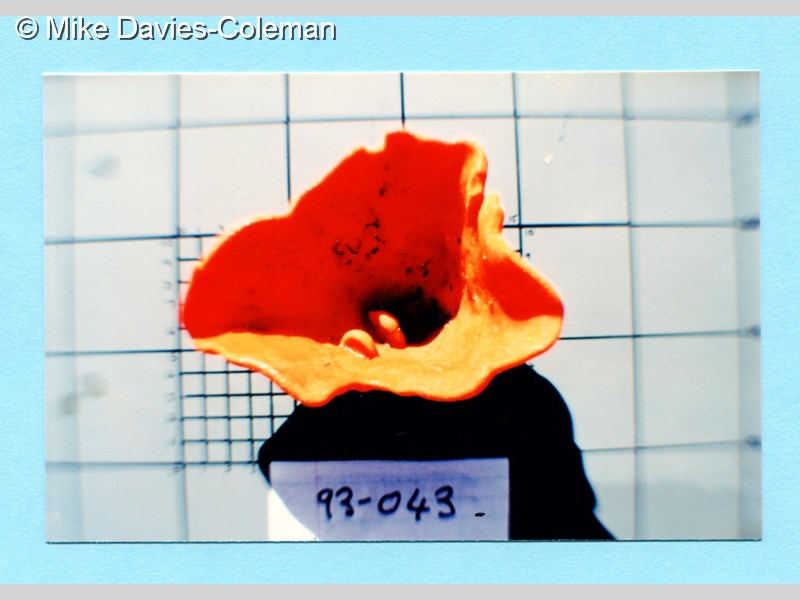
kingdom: Animalia
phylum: Porifera
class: Demospongiae
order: Axinellida
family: Axinellidae
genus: Axinella
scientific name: Axinella
